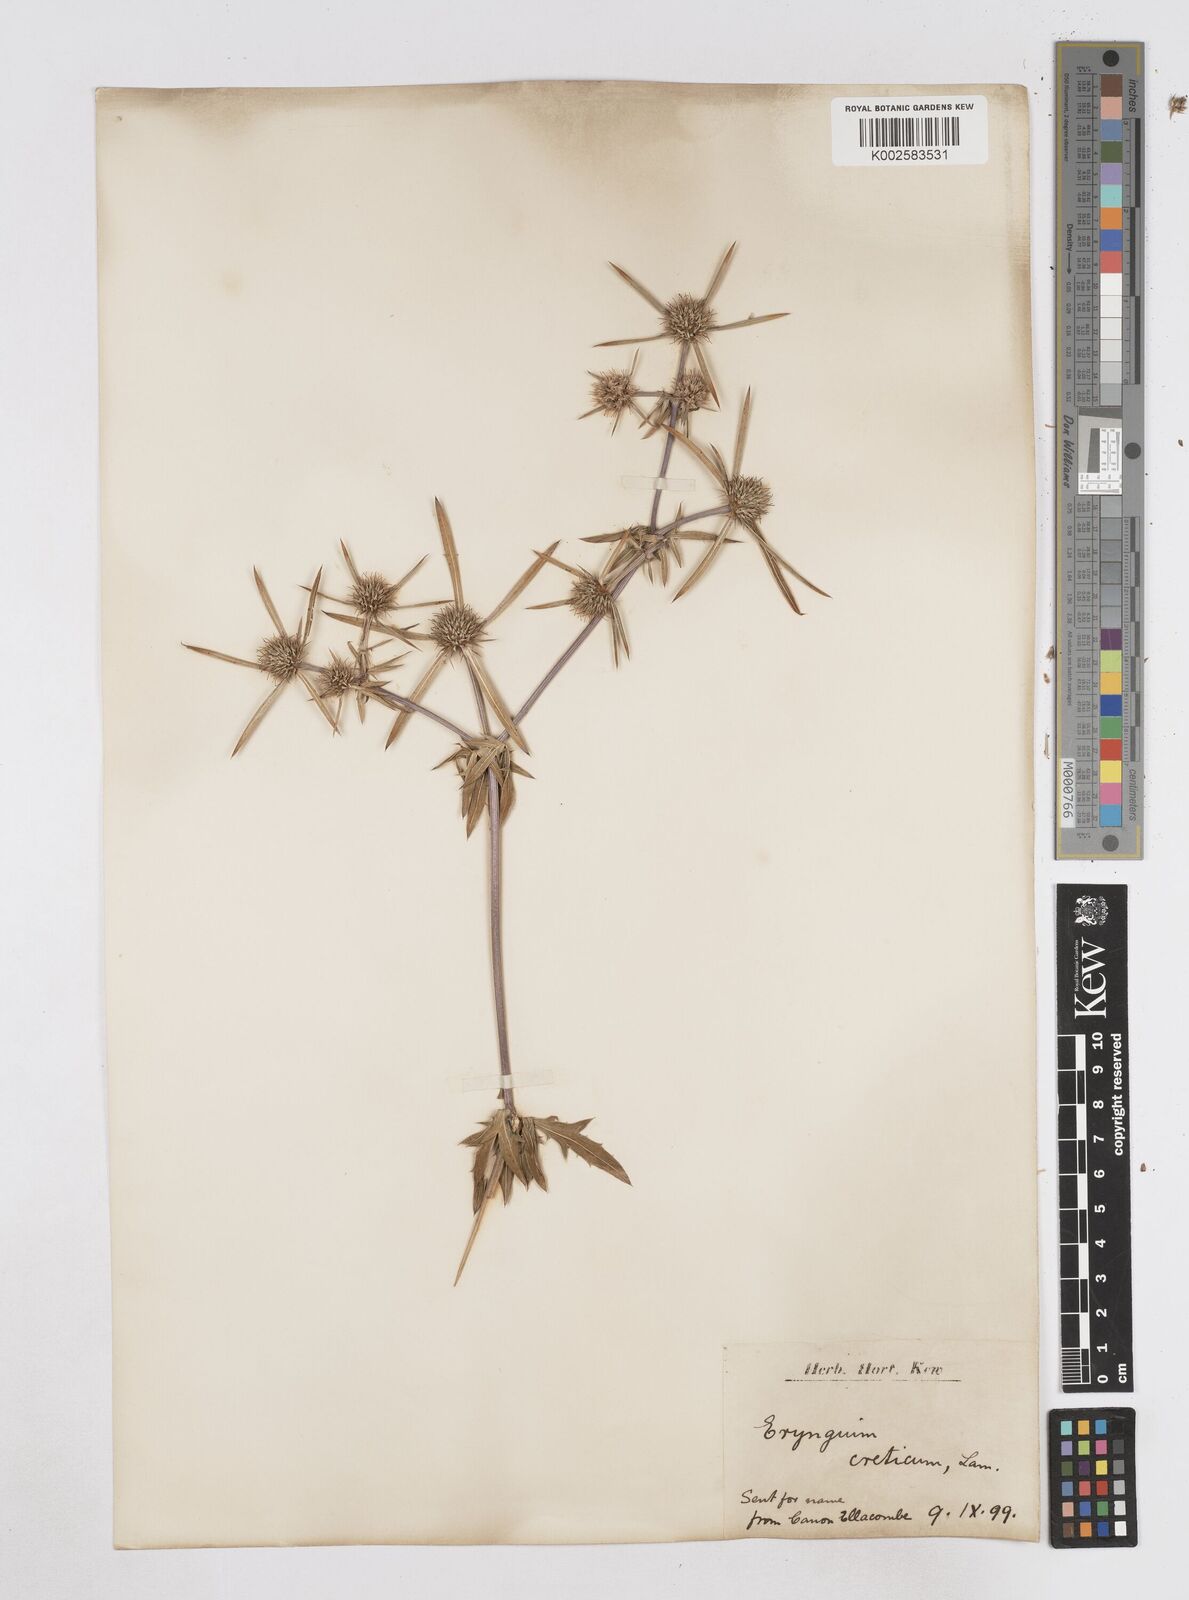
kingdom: Plantae
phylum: Tracheophyta
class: Magnoliopsida
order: Apiales
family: Apiaceae
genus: Eryngium
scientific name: Eryngium dichotomum
